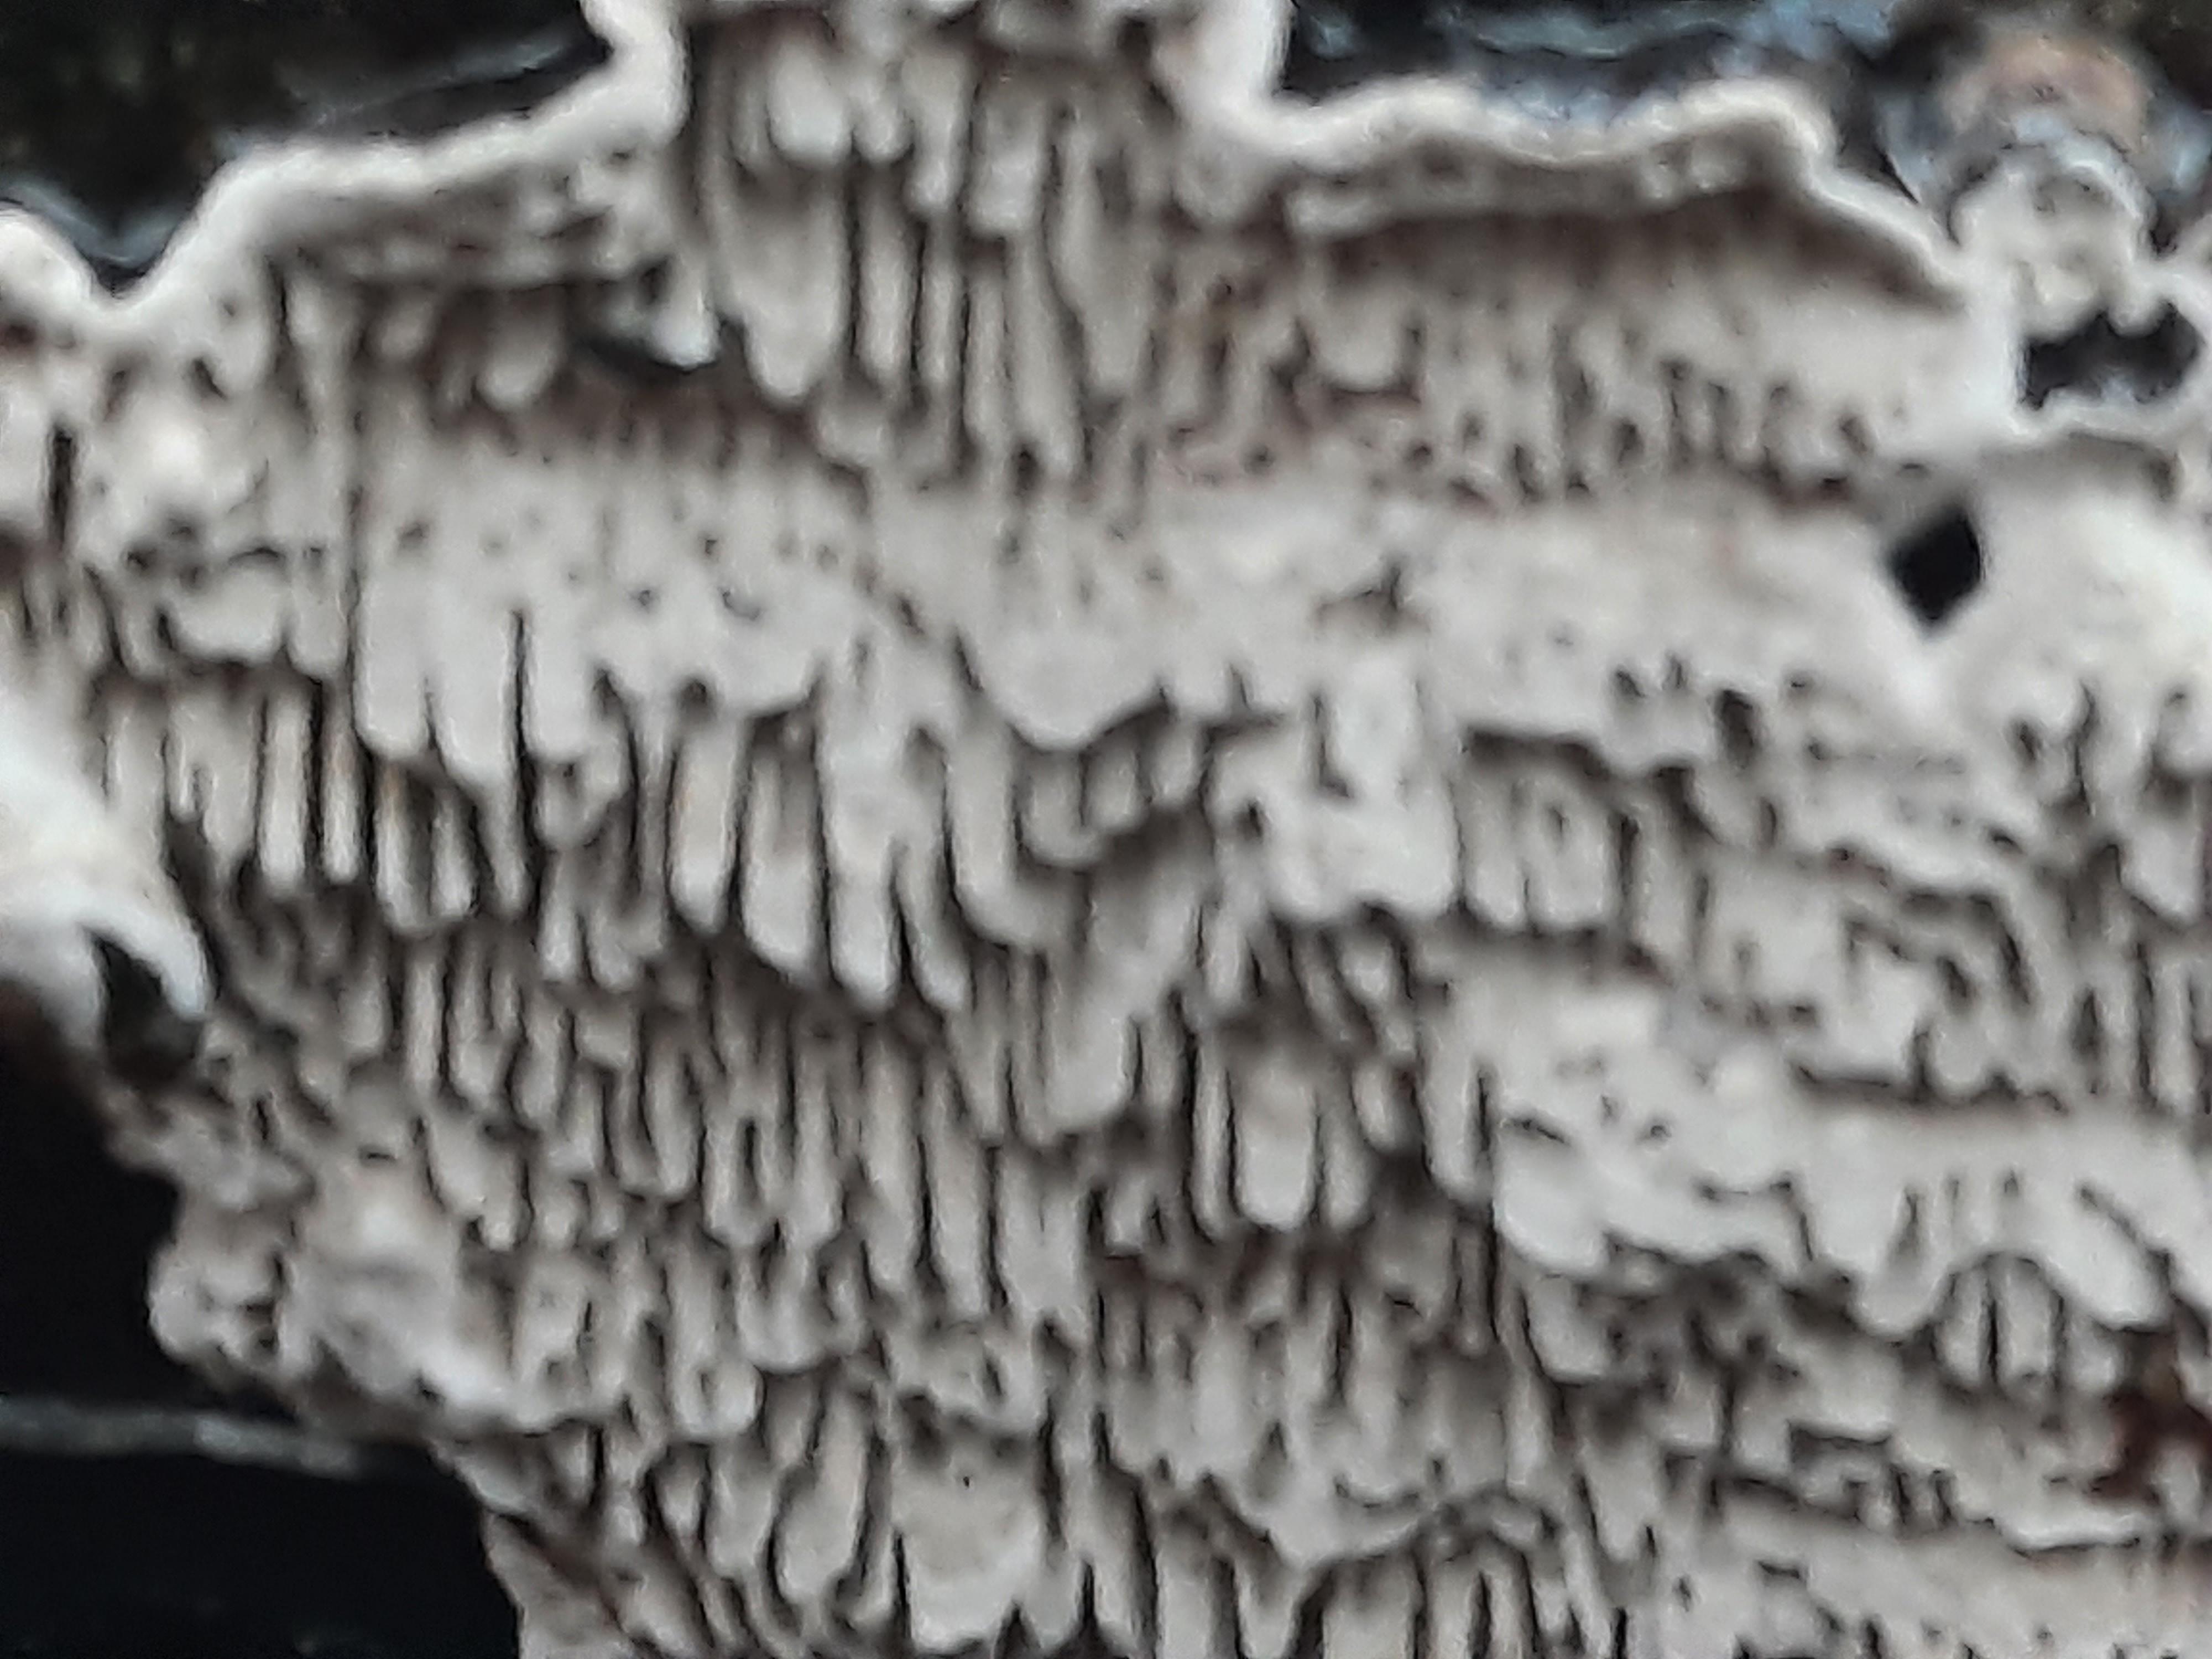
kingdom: Fungi
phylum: Basidiomycota
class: Agaricomycetes
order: Polyporales
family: Polyporaceae
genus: Podofomes
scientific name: Podofomes mollis
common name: blød begporesvamp
